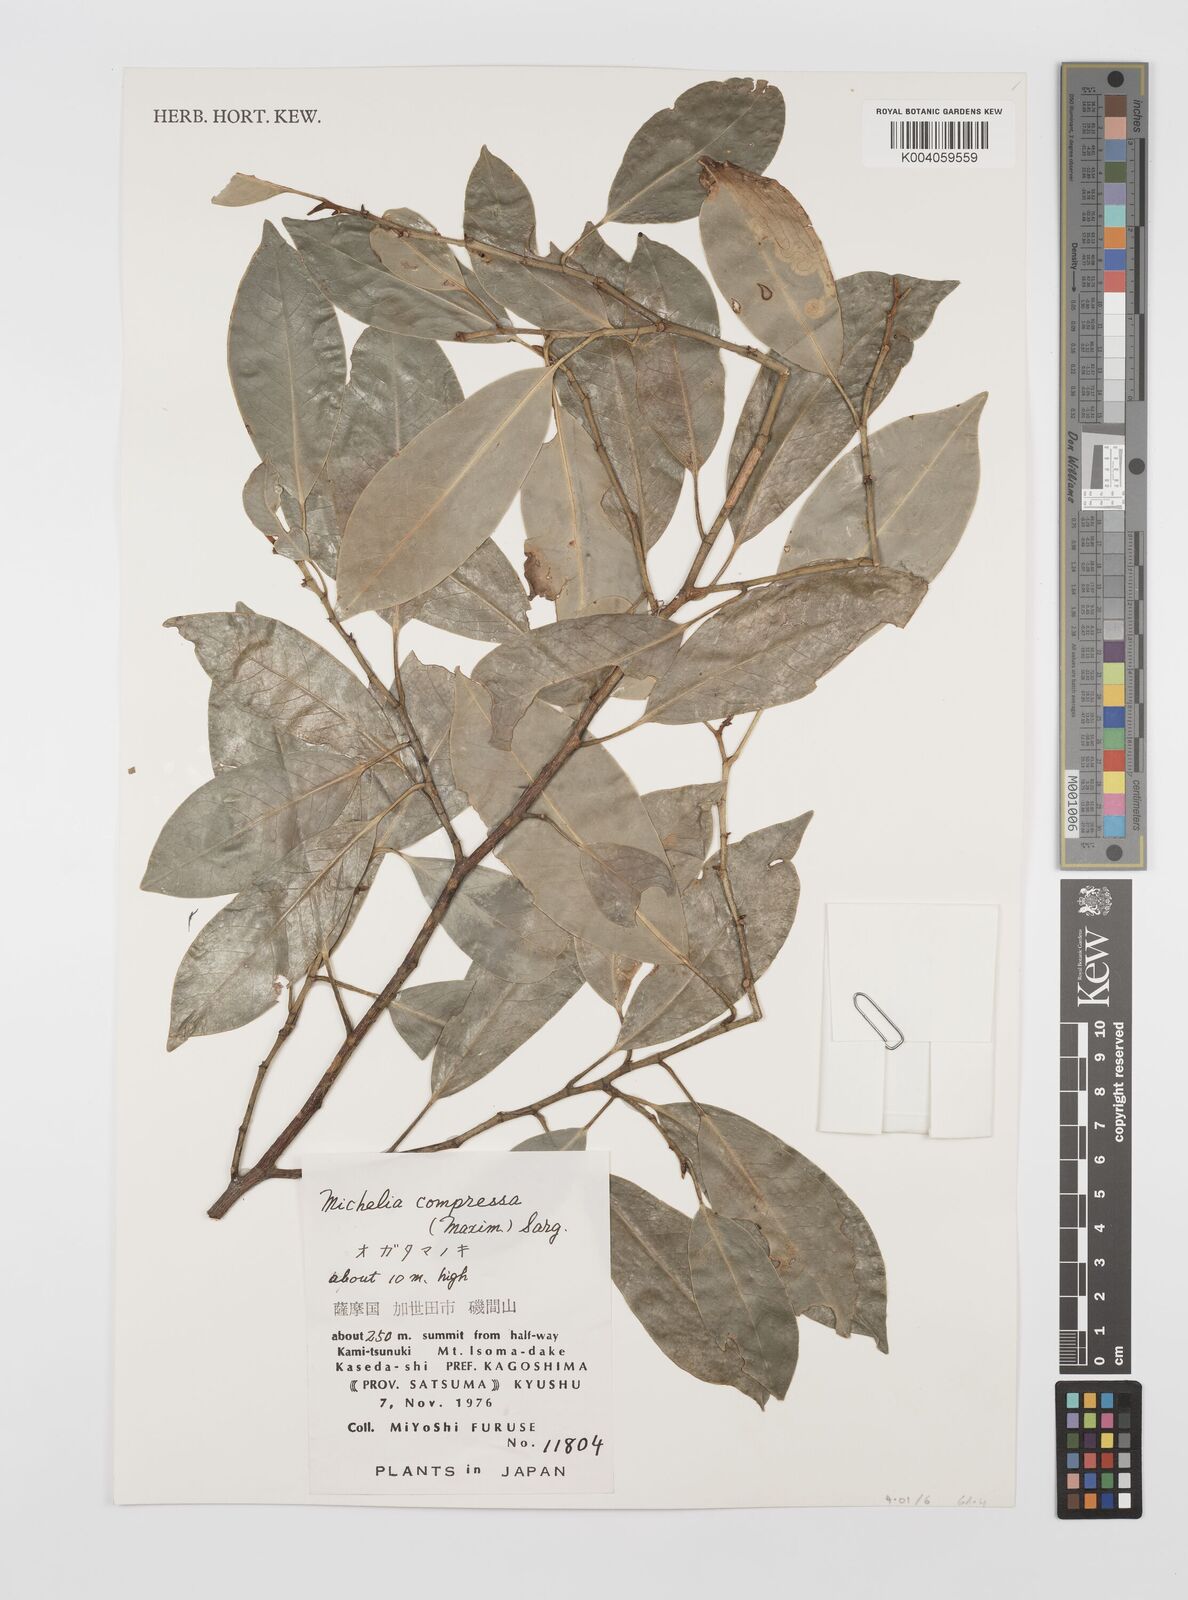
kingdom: Plantae
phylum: Tracheophyta
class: Magnoliopsida
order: Magnoliales
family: Magnoliaceae
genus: Magnolia
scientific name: Magnolia compressa
